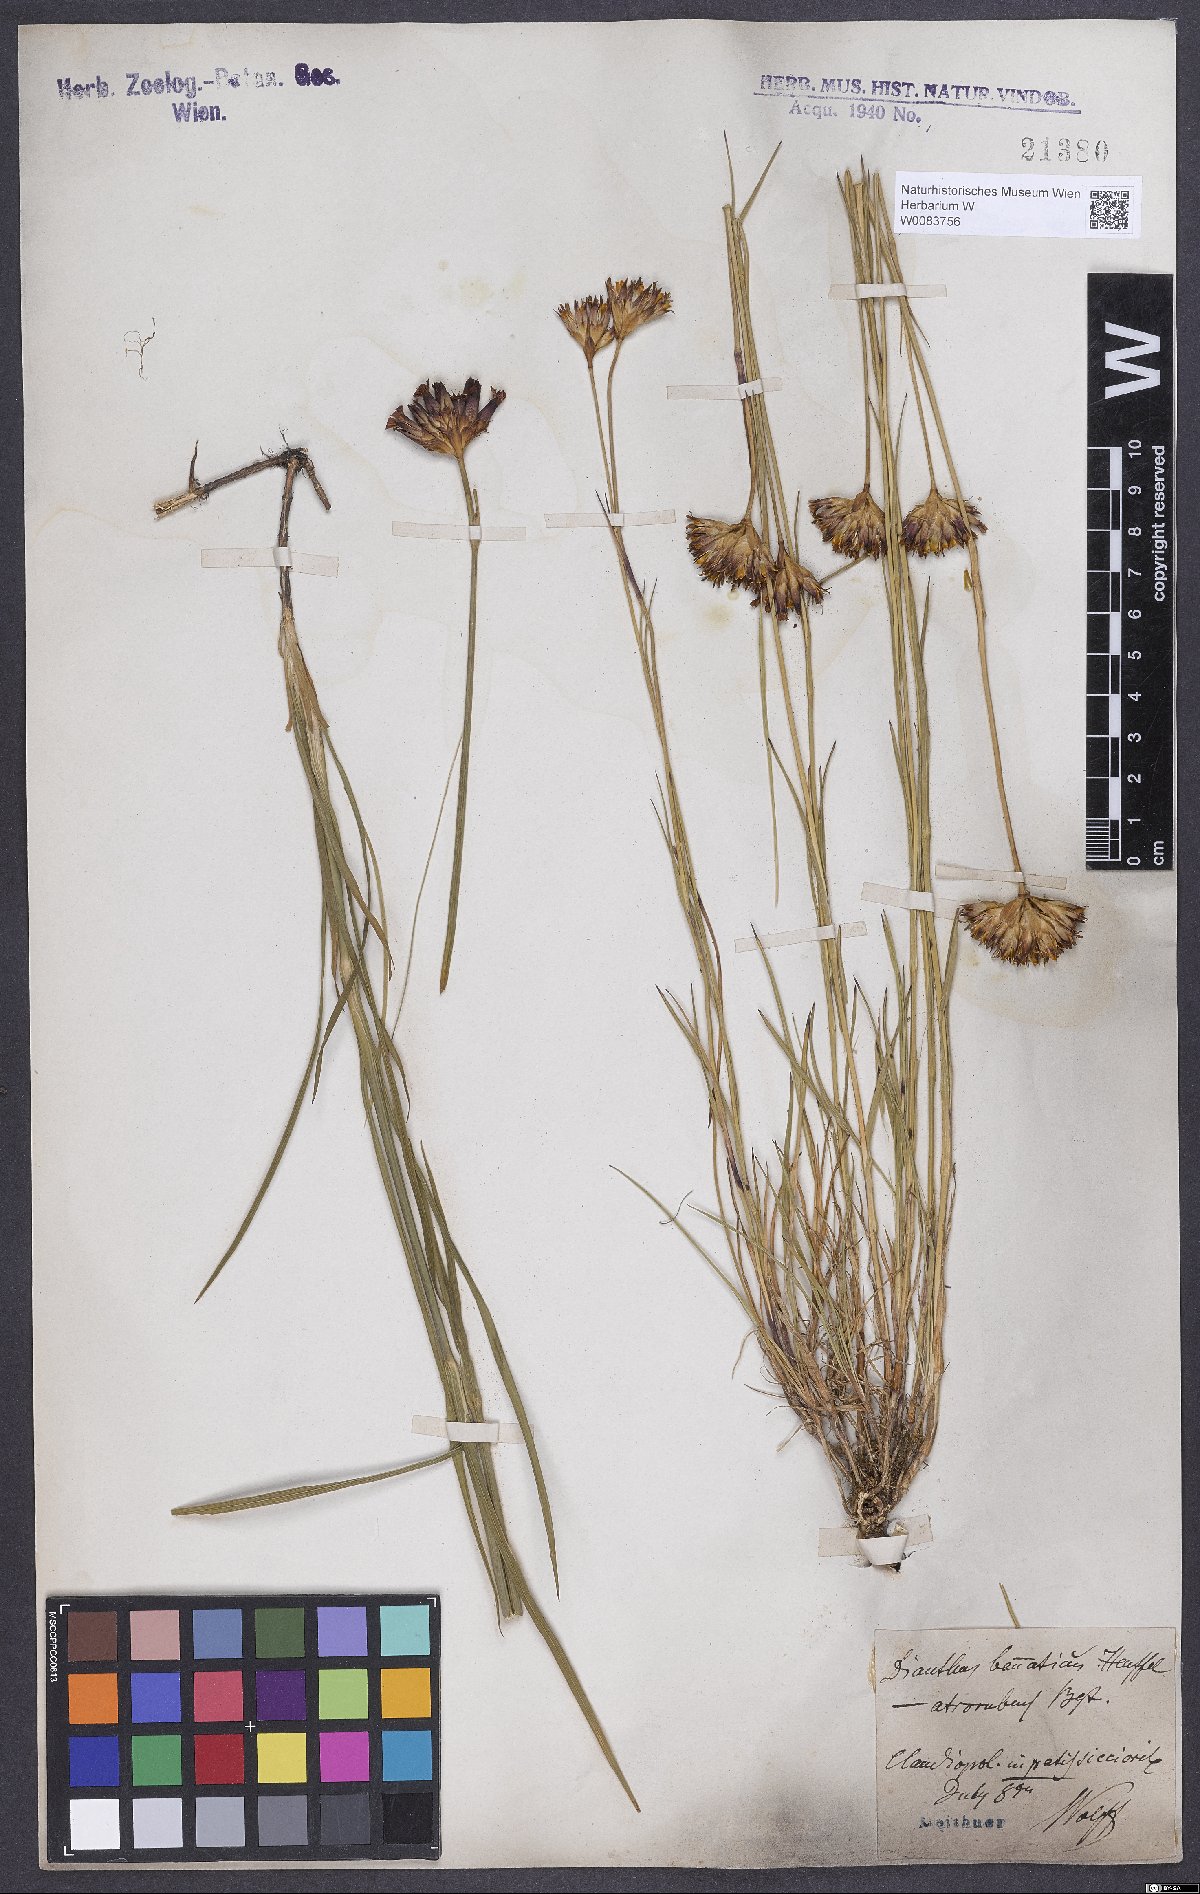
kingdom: Plantae
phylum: Tracheophyta
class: Magnoliopsida
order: Caryophyllales
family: Caryophyllaceae
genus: Dianthus
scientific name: Dianthus giganteus
